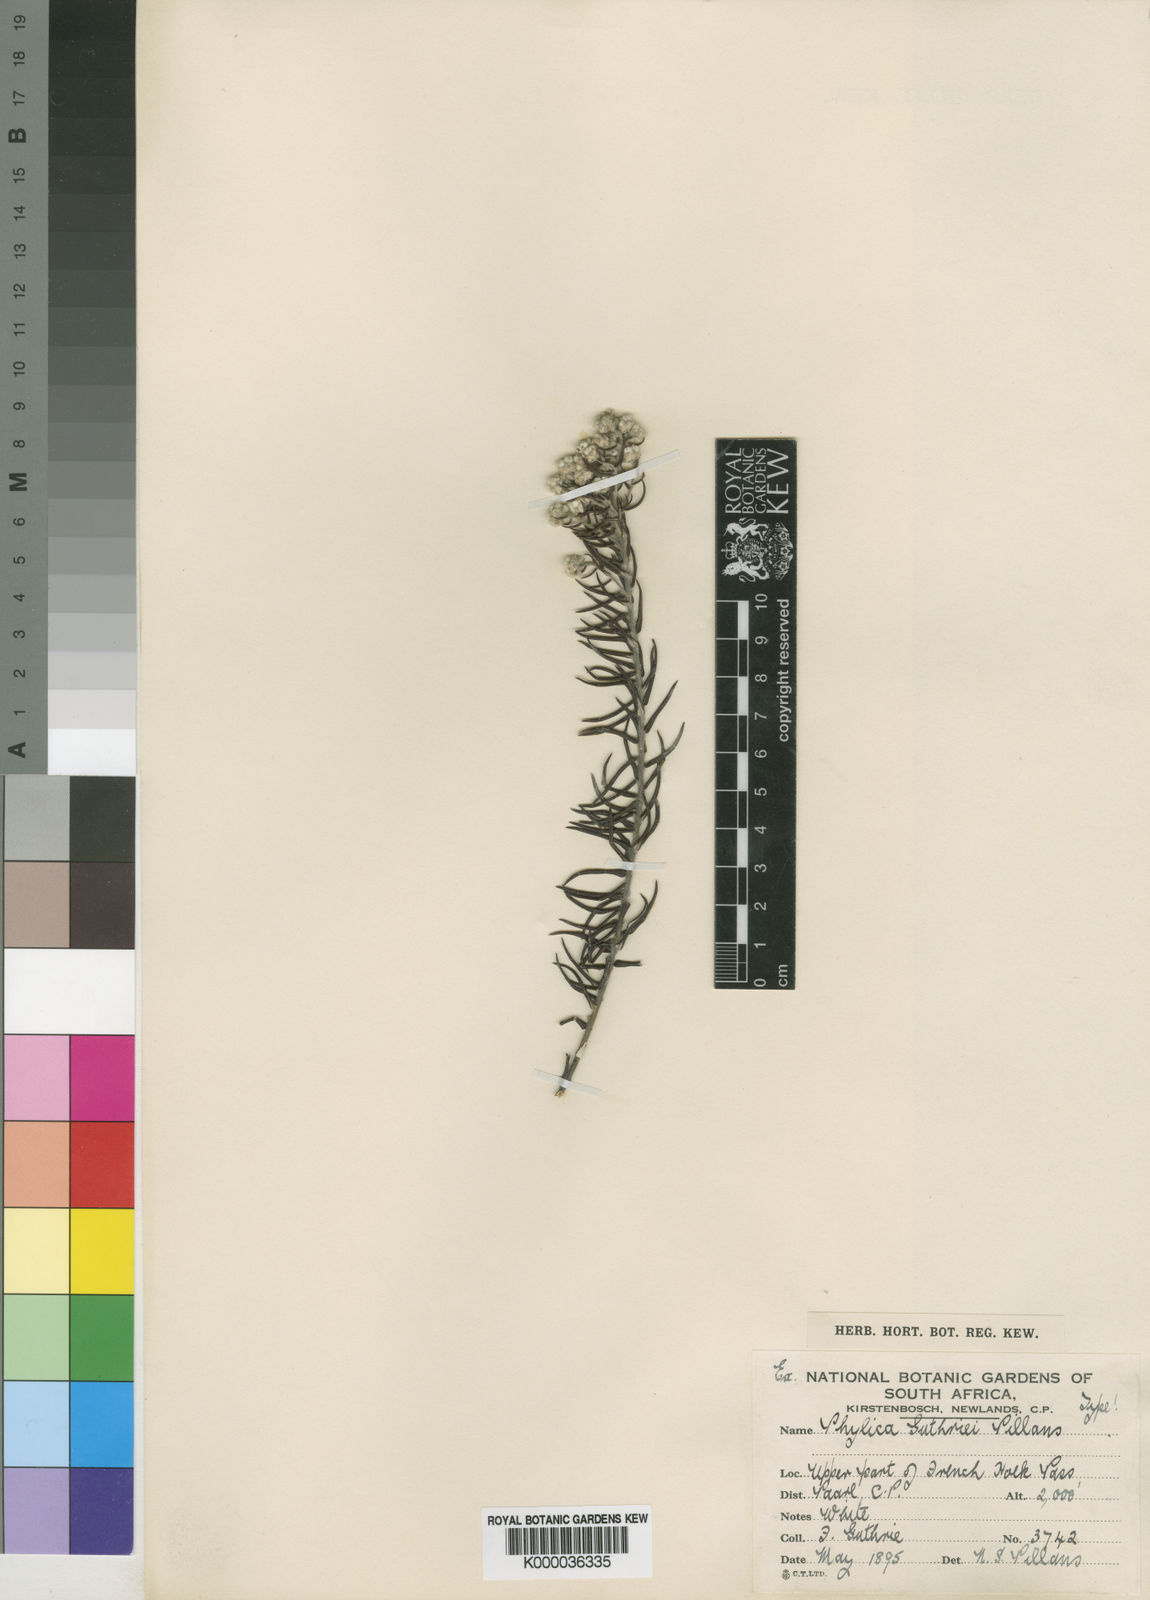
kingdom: Plantae
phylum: Tracheophyta
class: Magnoliopsida
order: Rosales
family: Rhamnaceae
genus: Phylica
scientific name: Phylica guthriei
